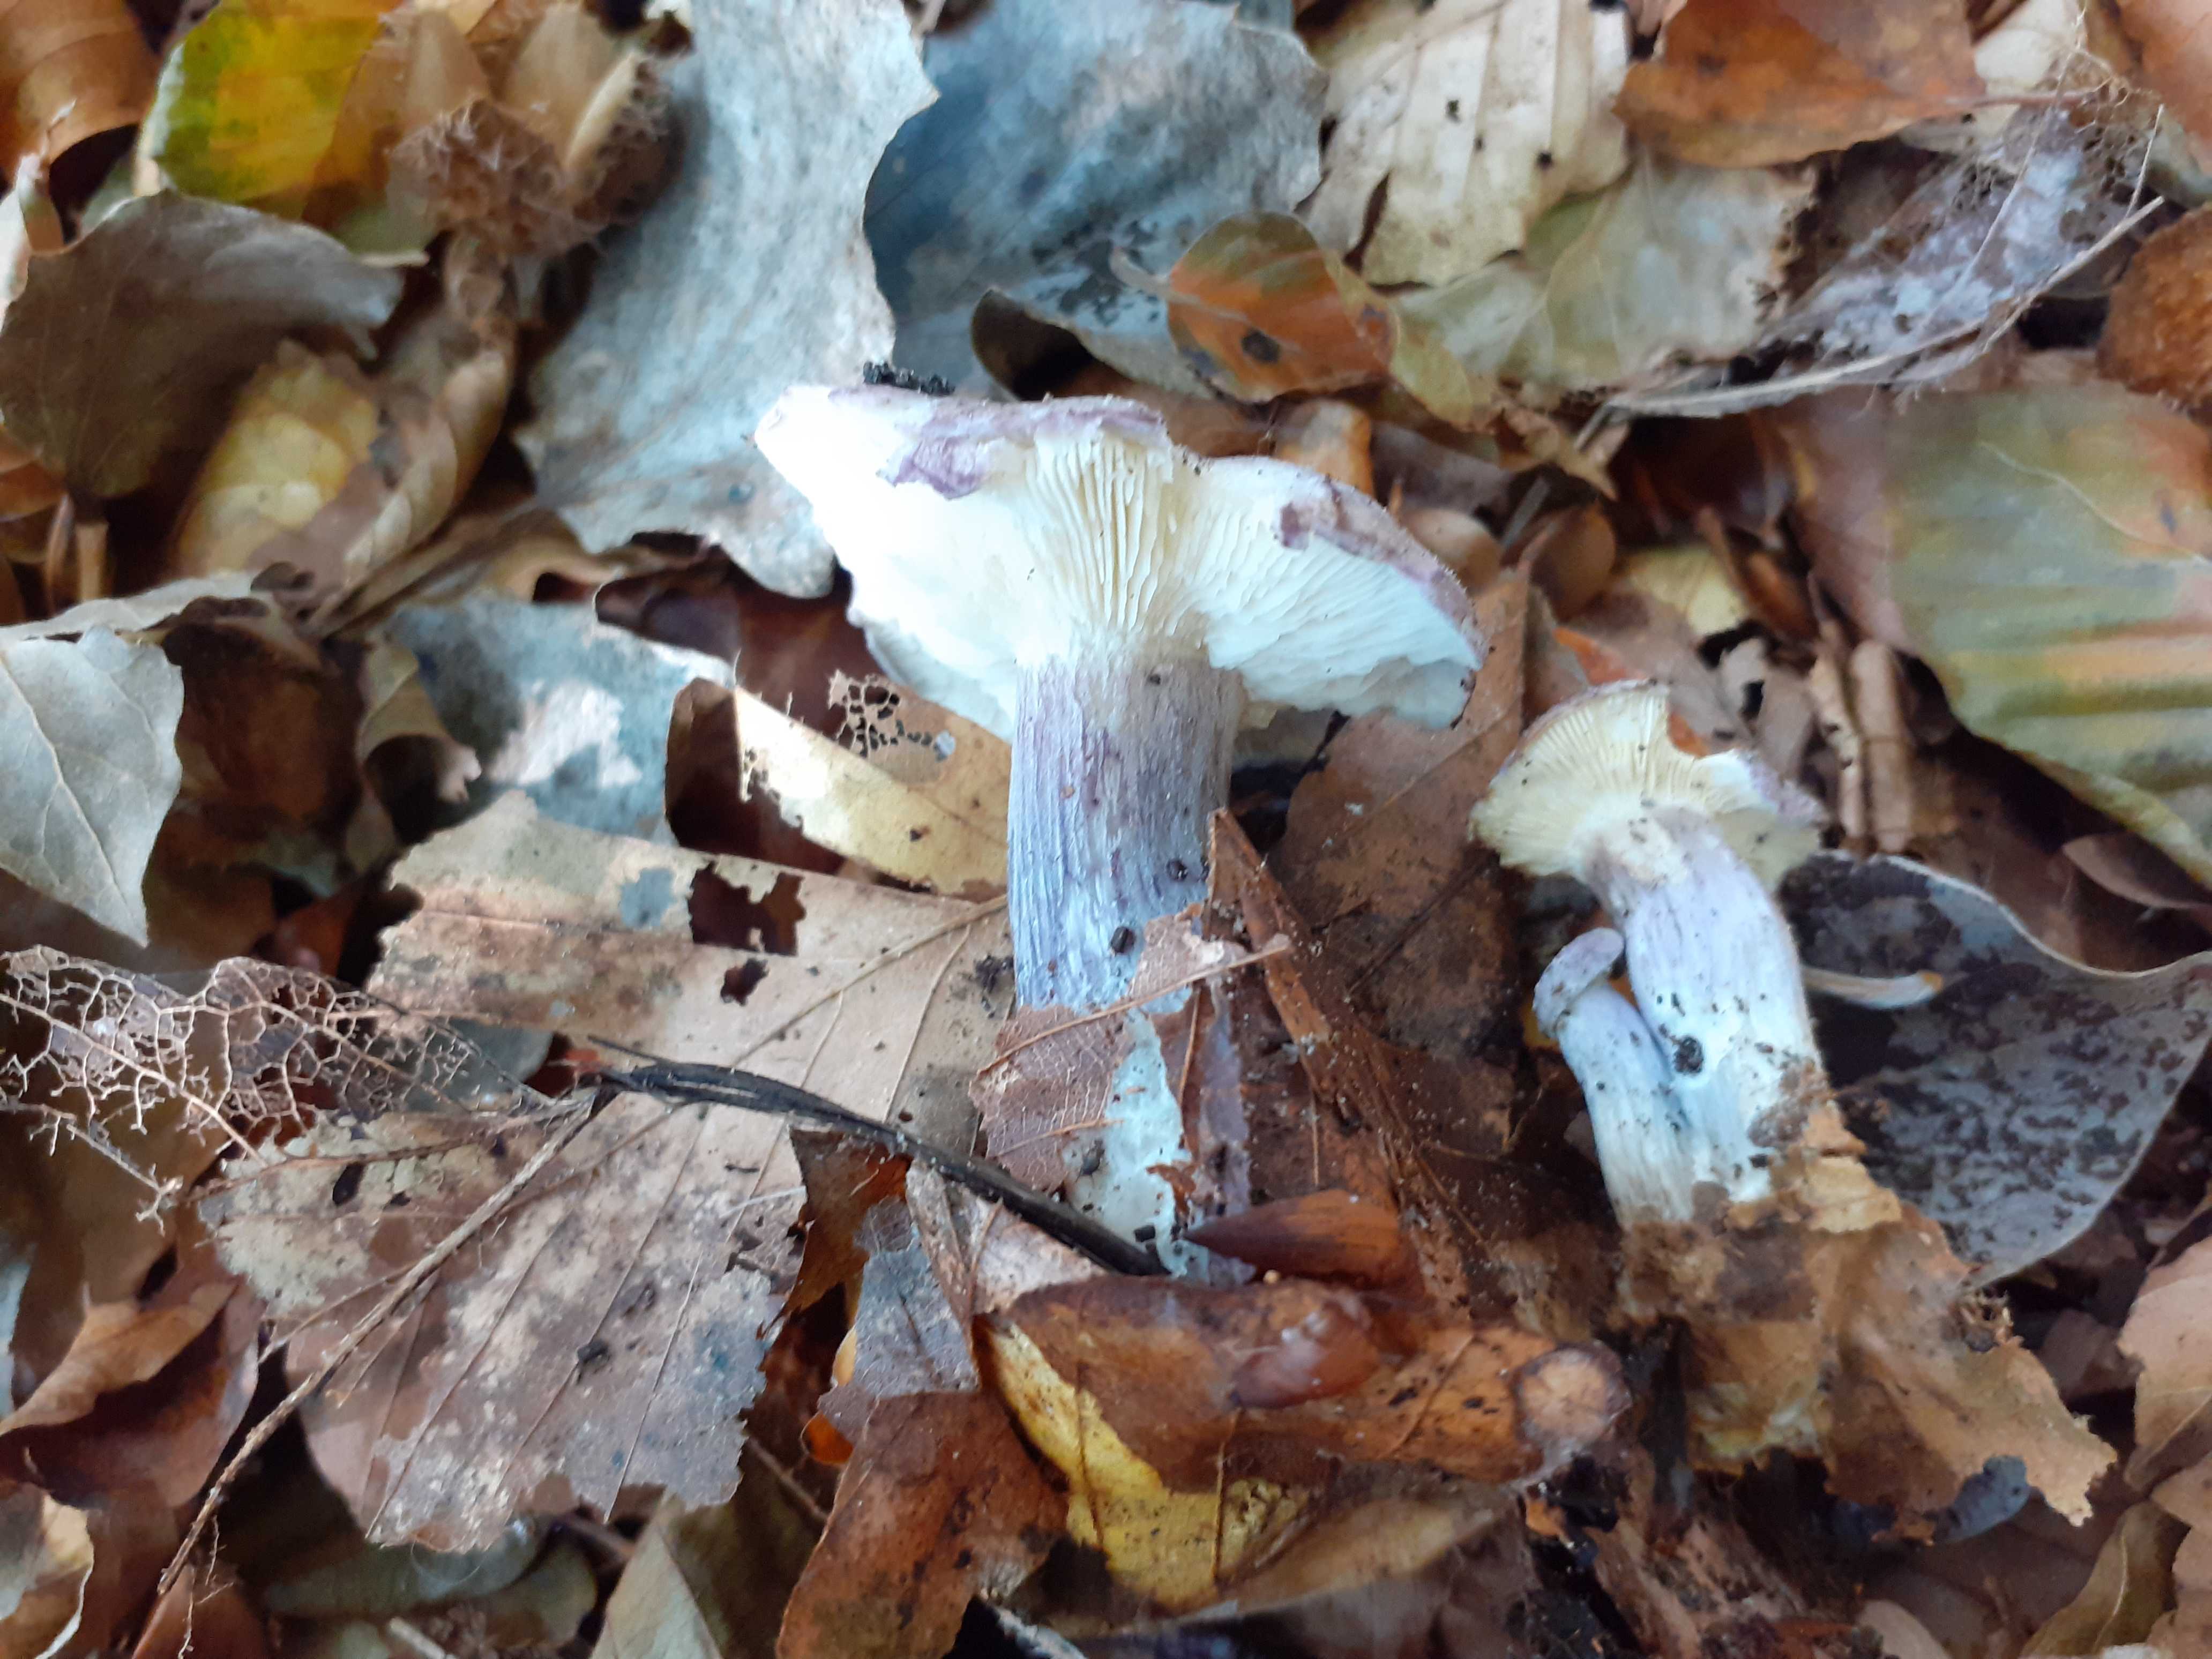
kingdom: Fungi
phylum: Basidiomycota
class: Agaricomycetes
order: Agaricales
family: Lyophyllaceae
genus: Calocybe
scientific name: Calocybe ionides
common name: violblå fagerhat
